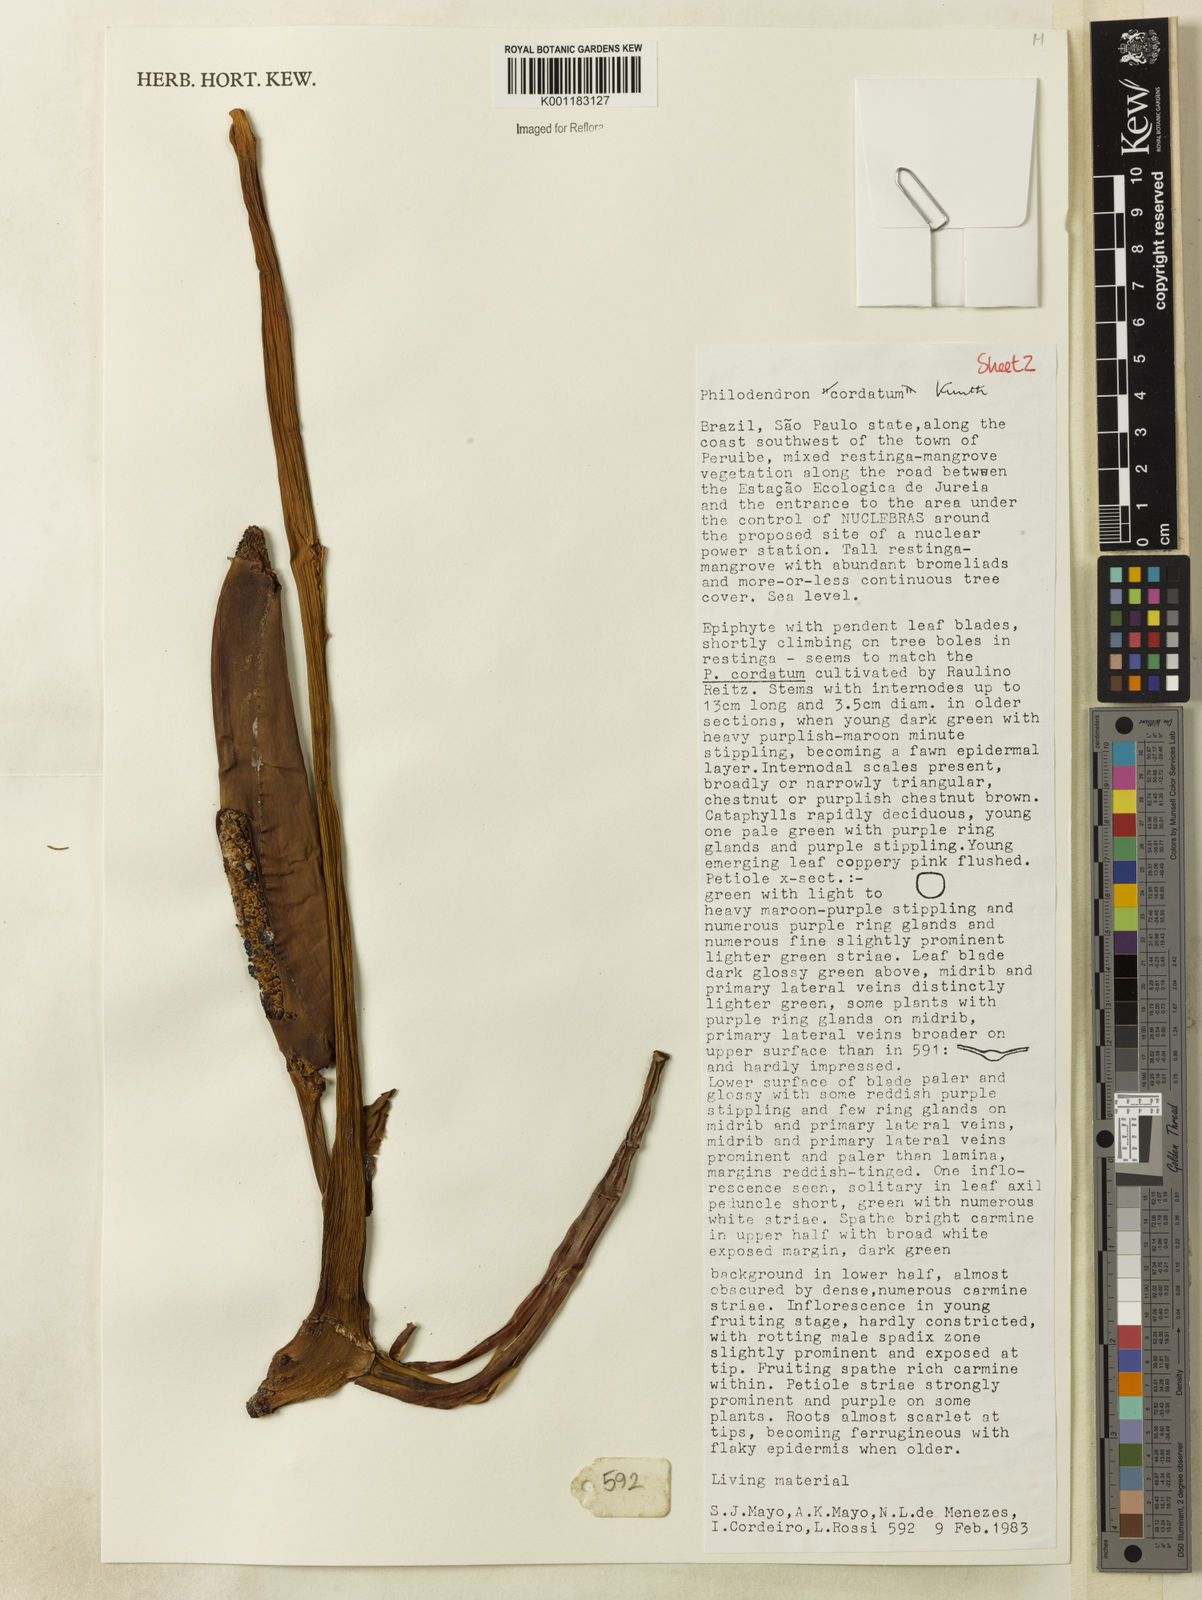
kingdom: Plantae
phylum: Tracheophyta
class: Liliopsida
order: Alismatales
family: Araceae
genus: Philodendron
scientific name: Philodendron cordatum
